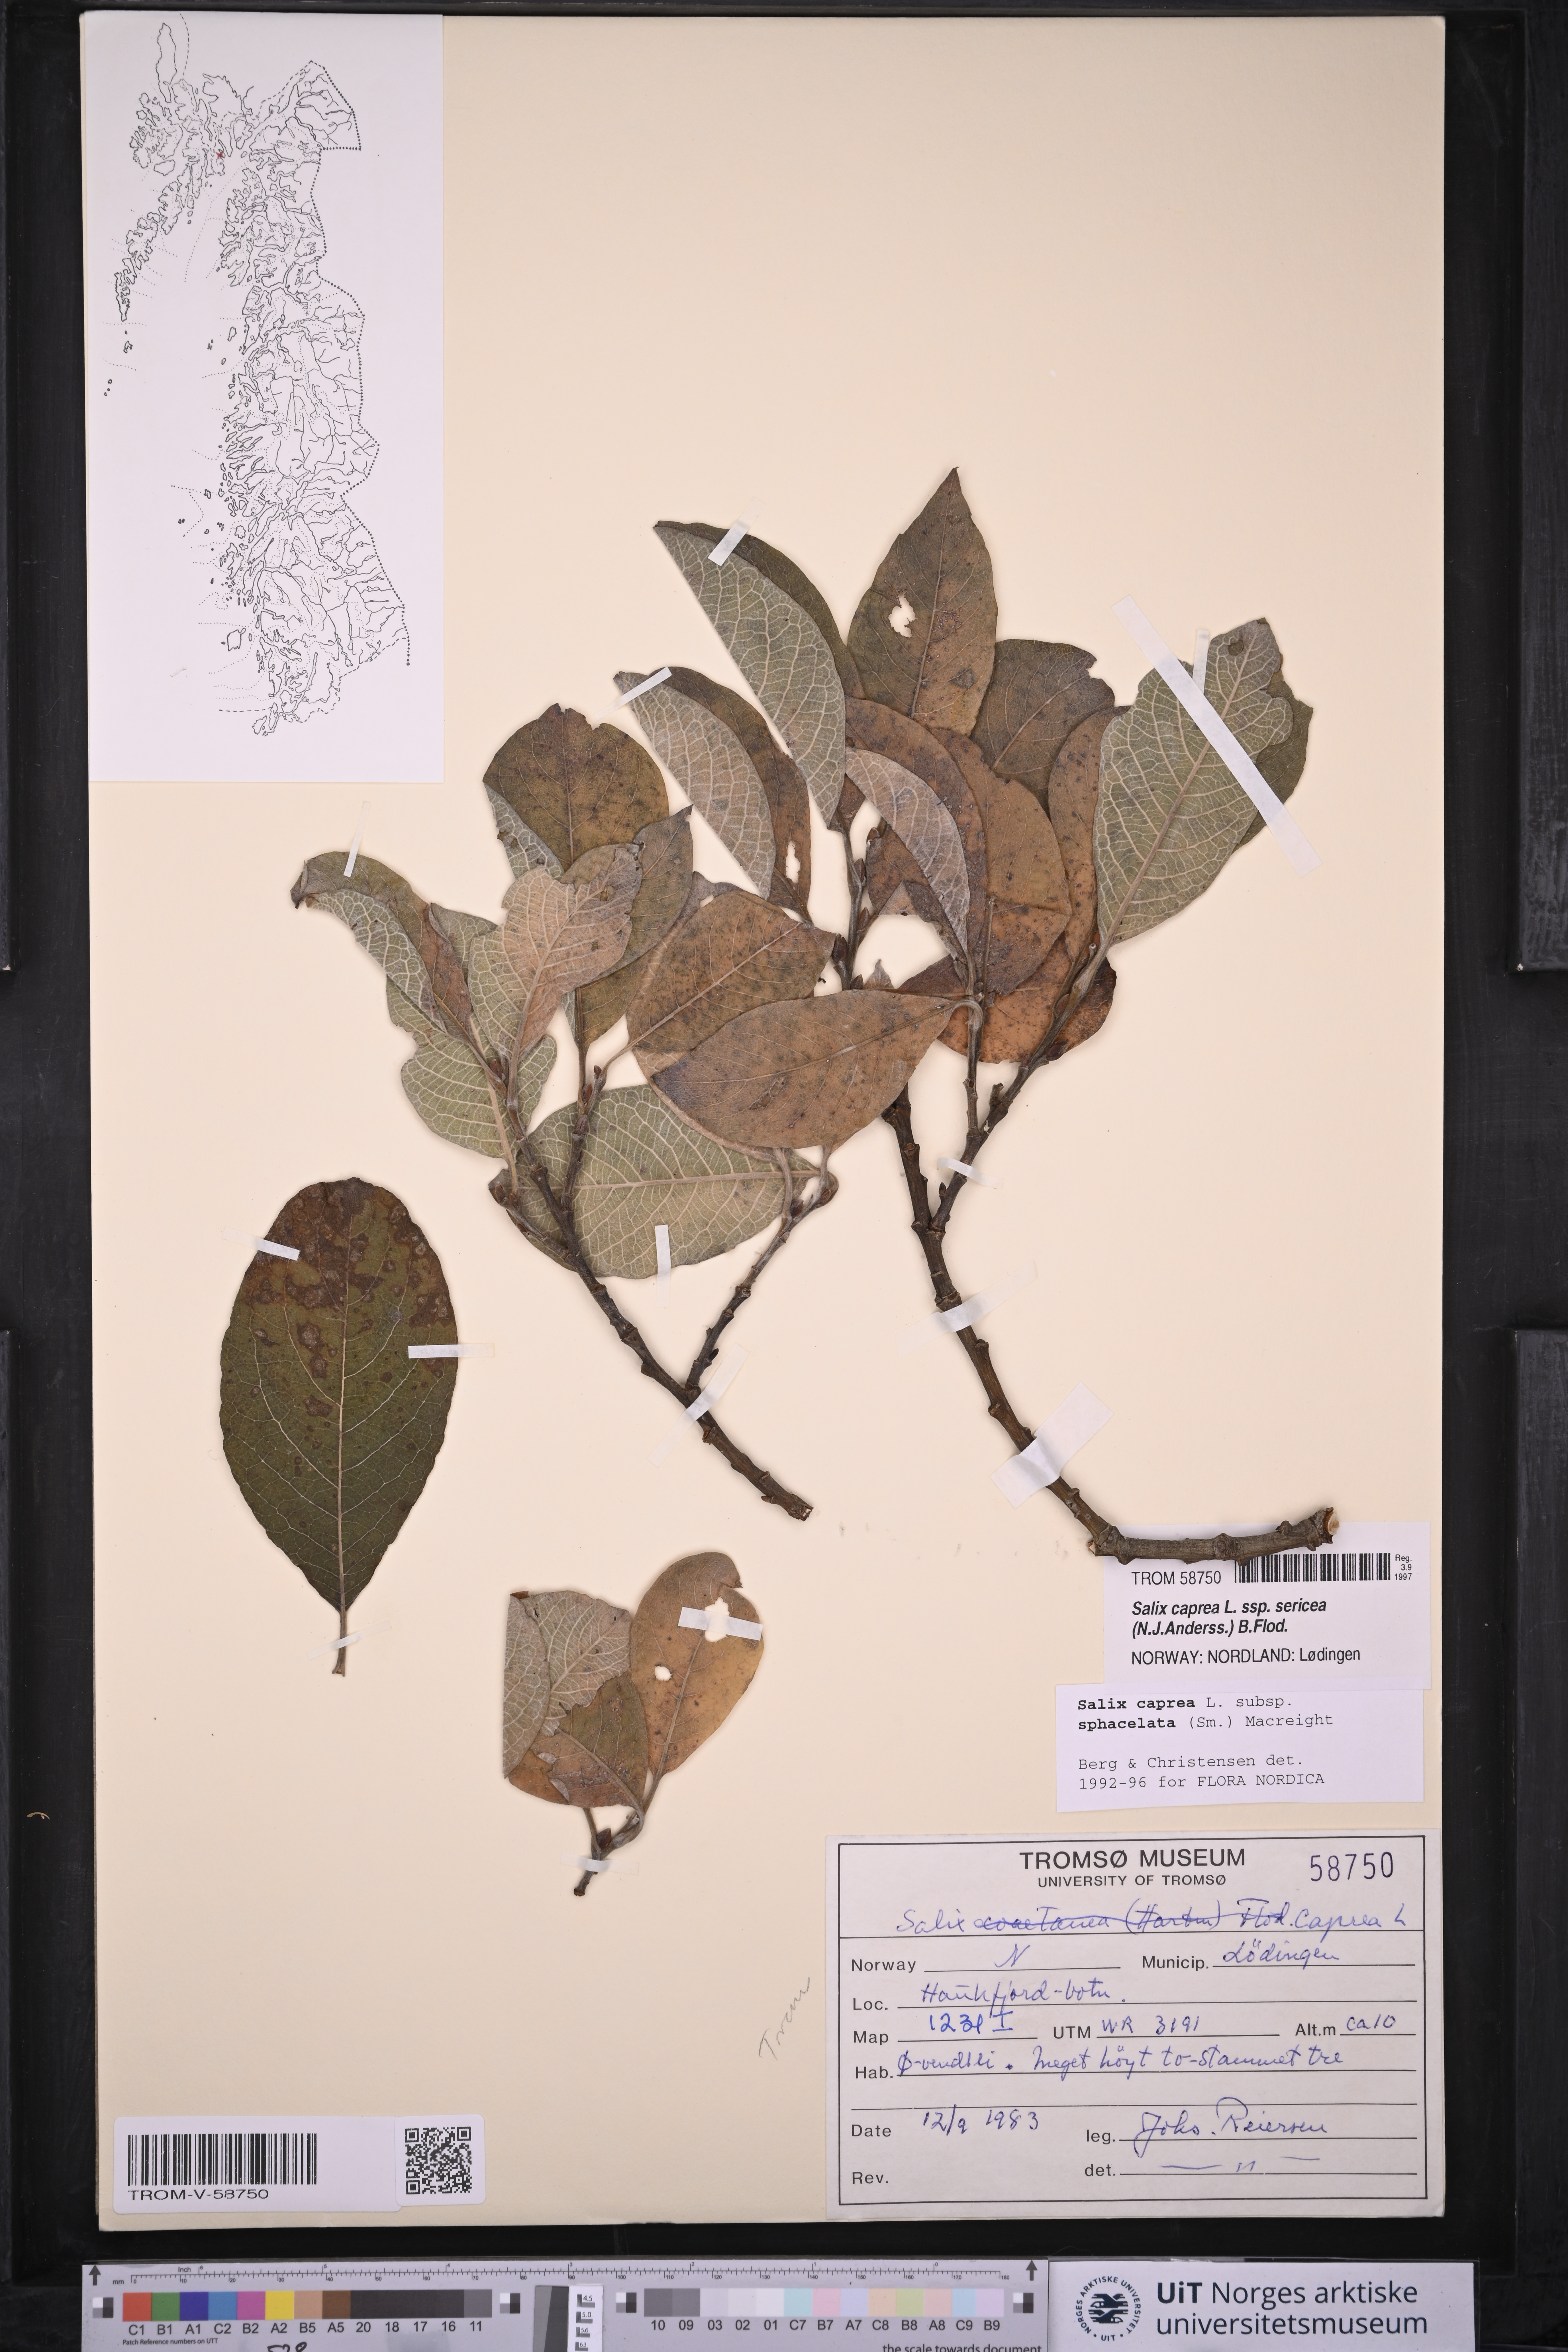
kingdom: Plantae
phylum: Tracheophyta
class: Magnoliopsida
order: Malpighiales
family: Salicaceae
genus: Salix
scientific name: Salix caprea
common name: Goat willow
